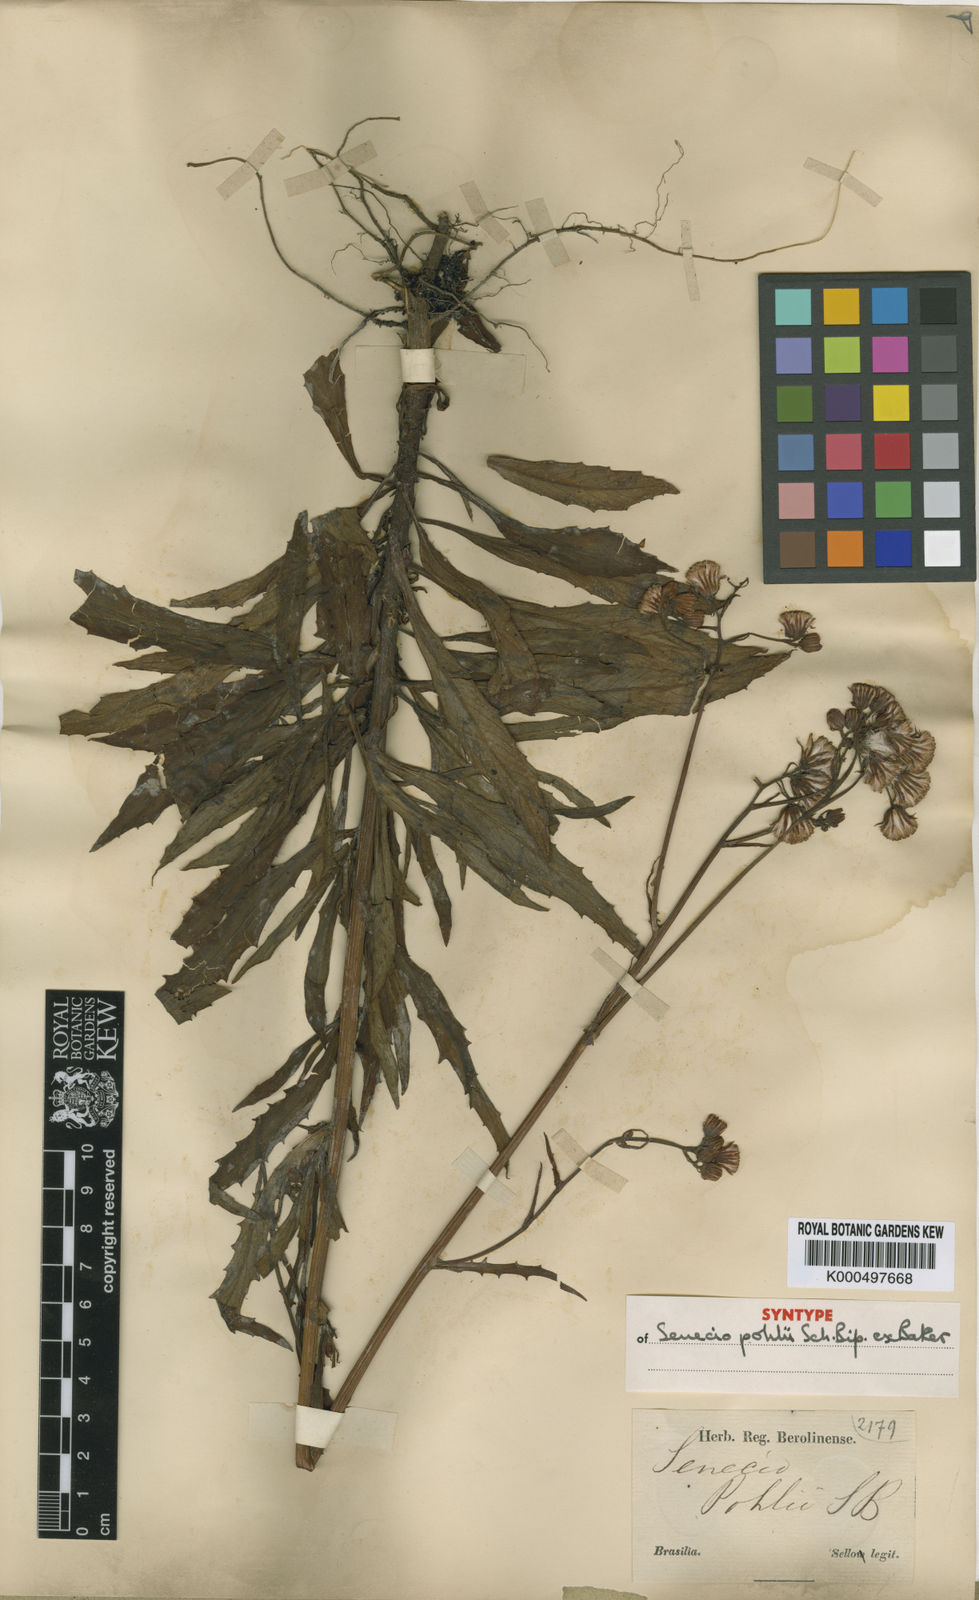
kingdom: Plantae
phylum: Tracheophyta
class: Magnoliopsida
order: Asterales
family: Asteraceae
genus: Senecio
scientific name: Senecio
